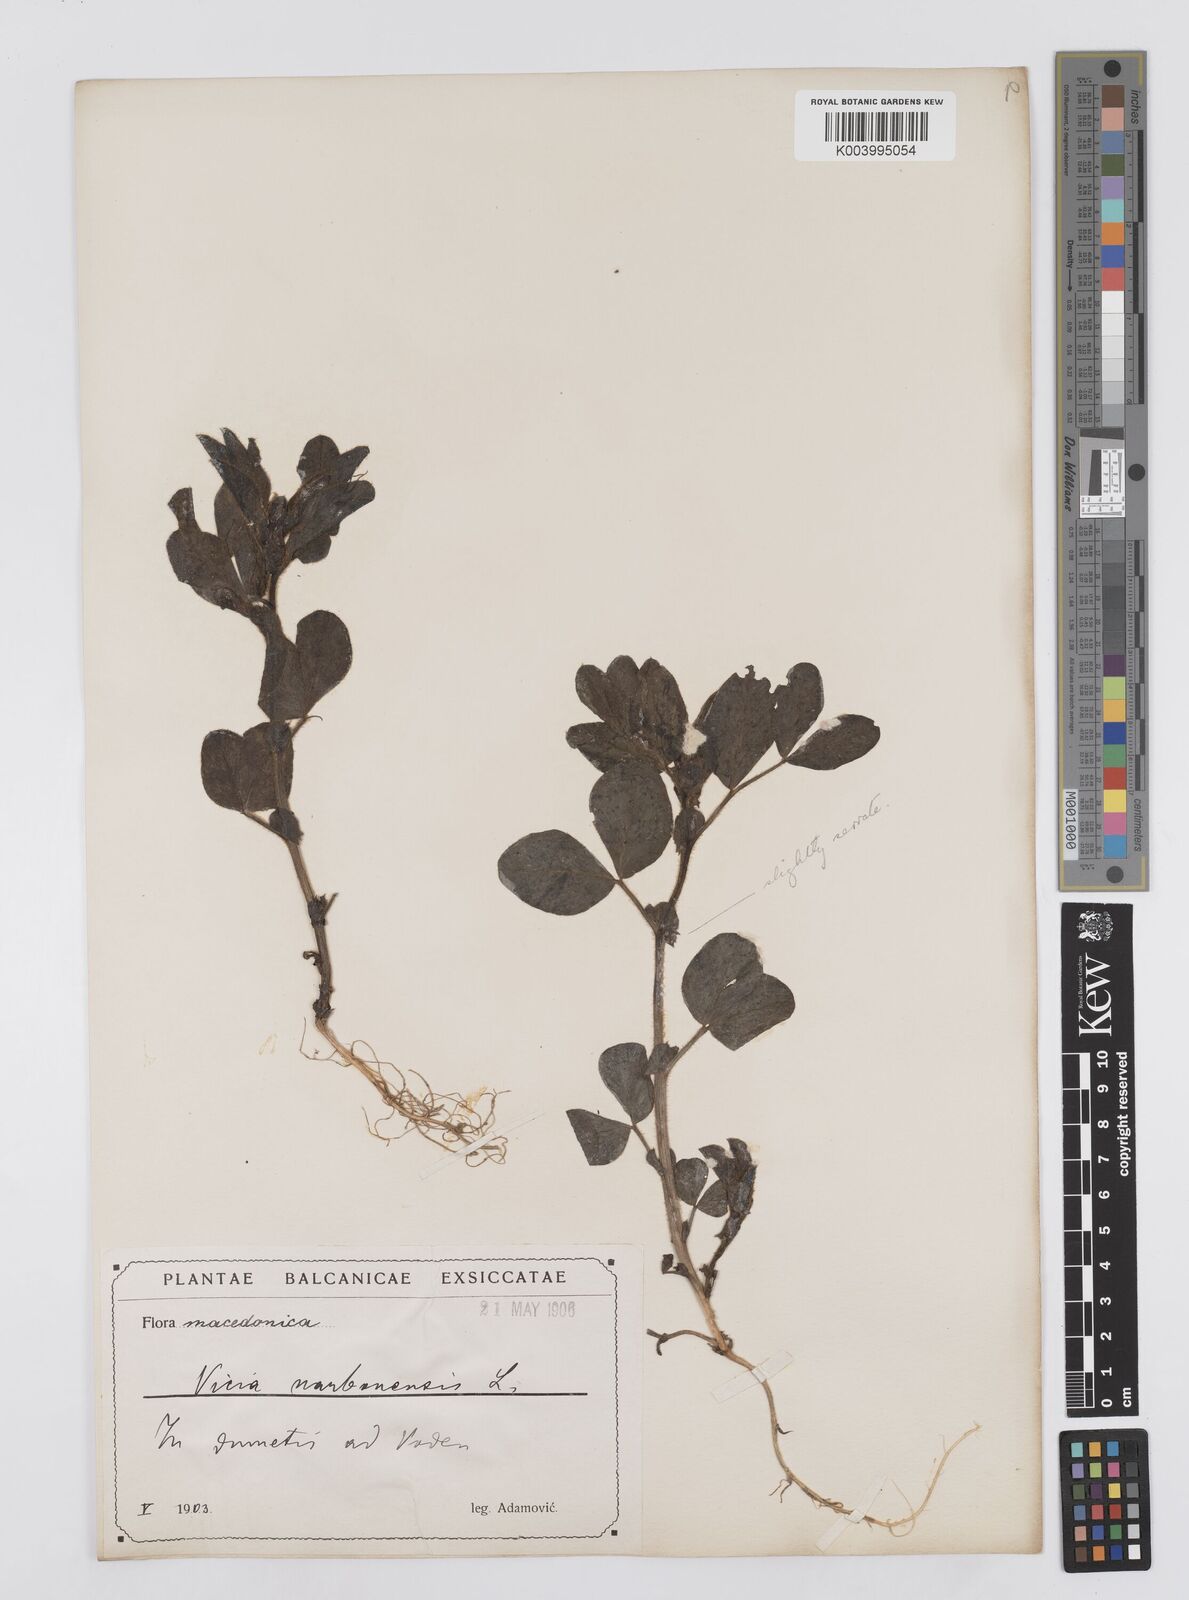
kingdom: Plantae
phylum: Tracheophyta
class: Magnoliopsida
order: Fabales
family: Fabaceae
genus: Vicia
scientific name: Vicia narbonensis
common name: Narbonne vetch
